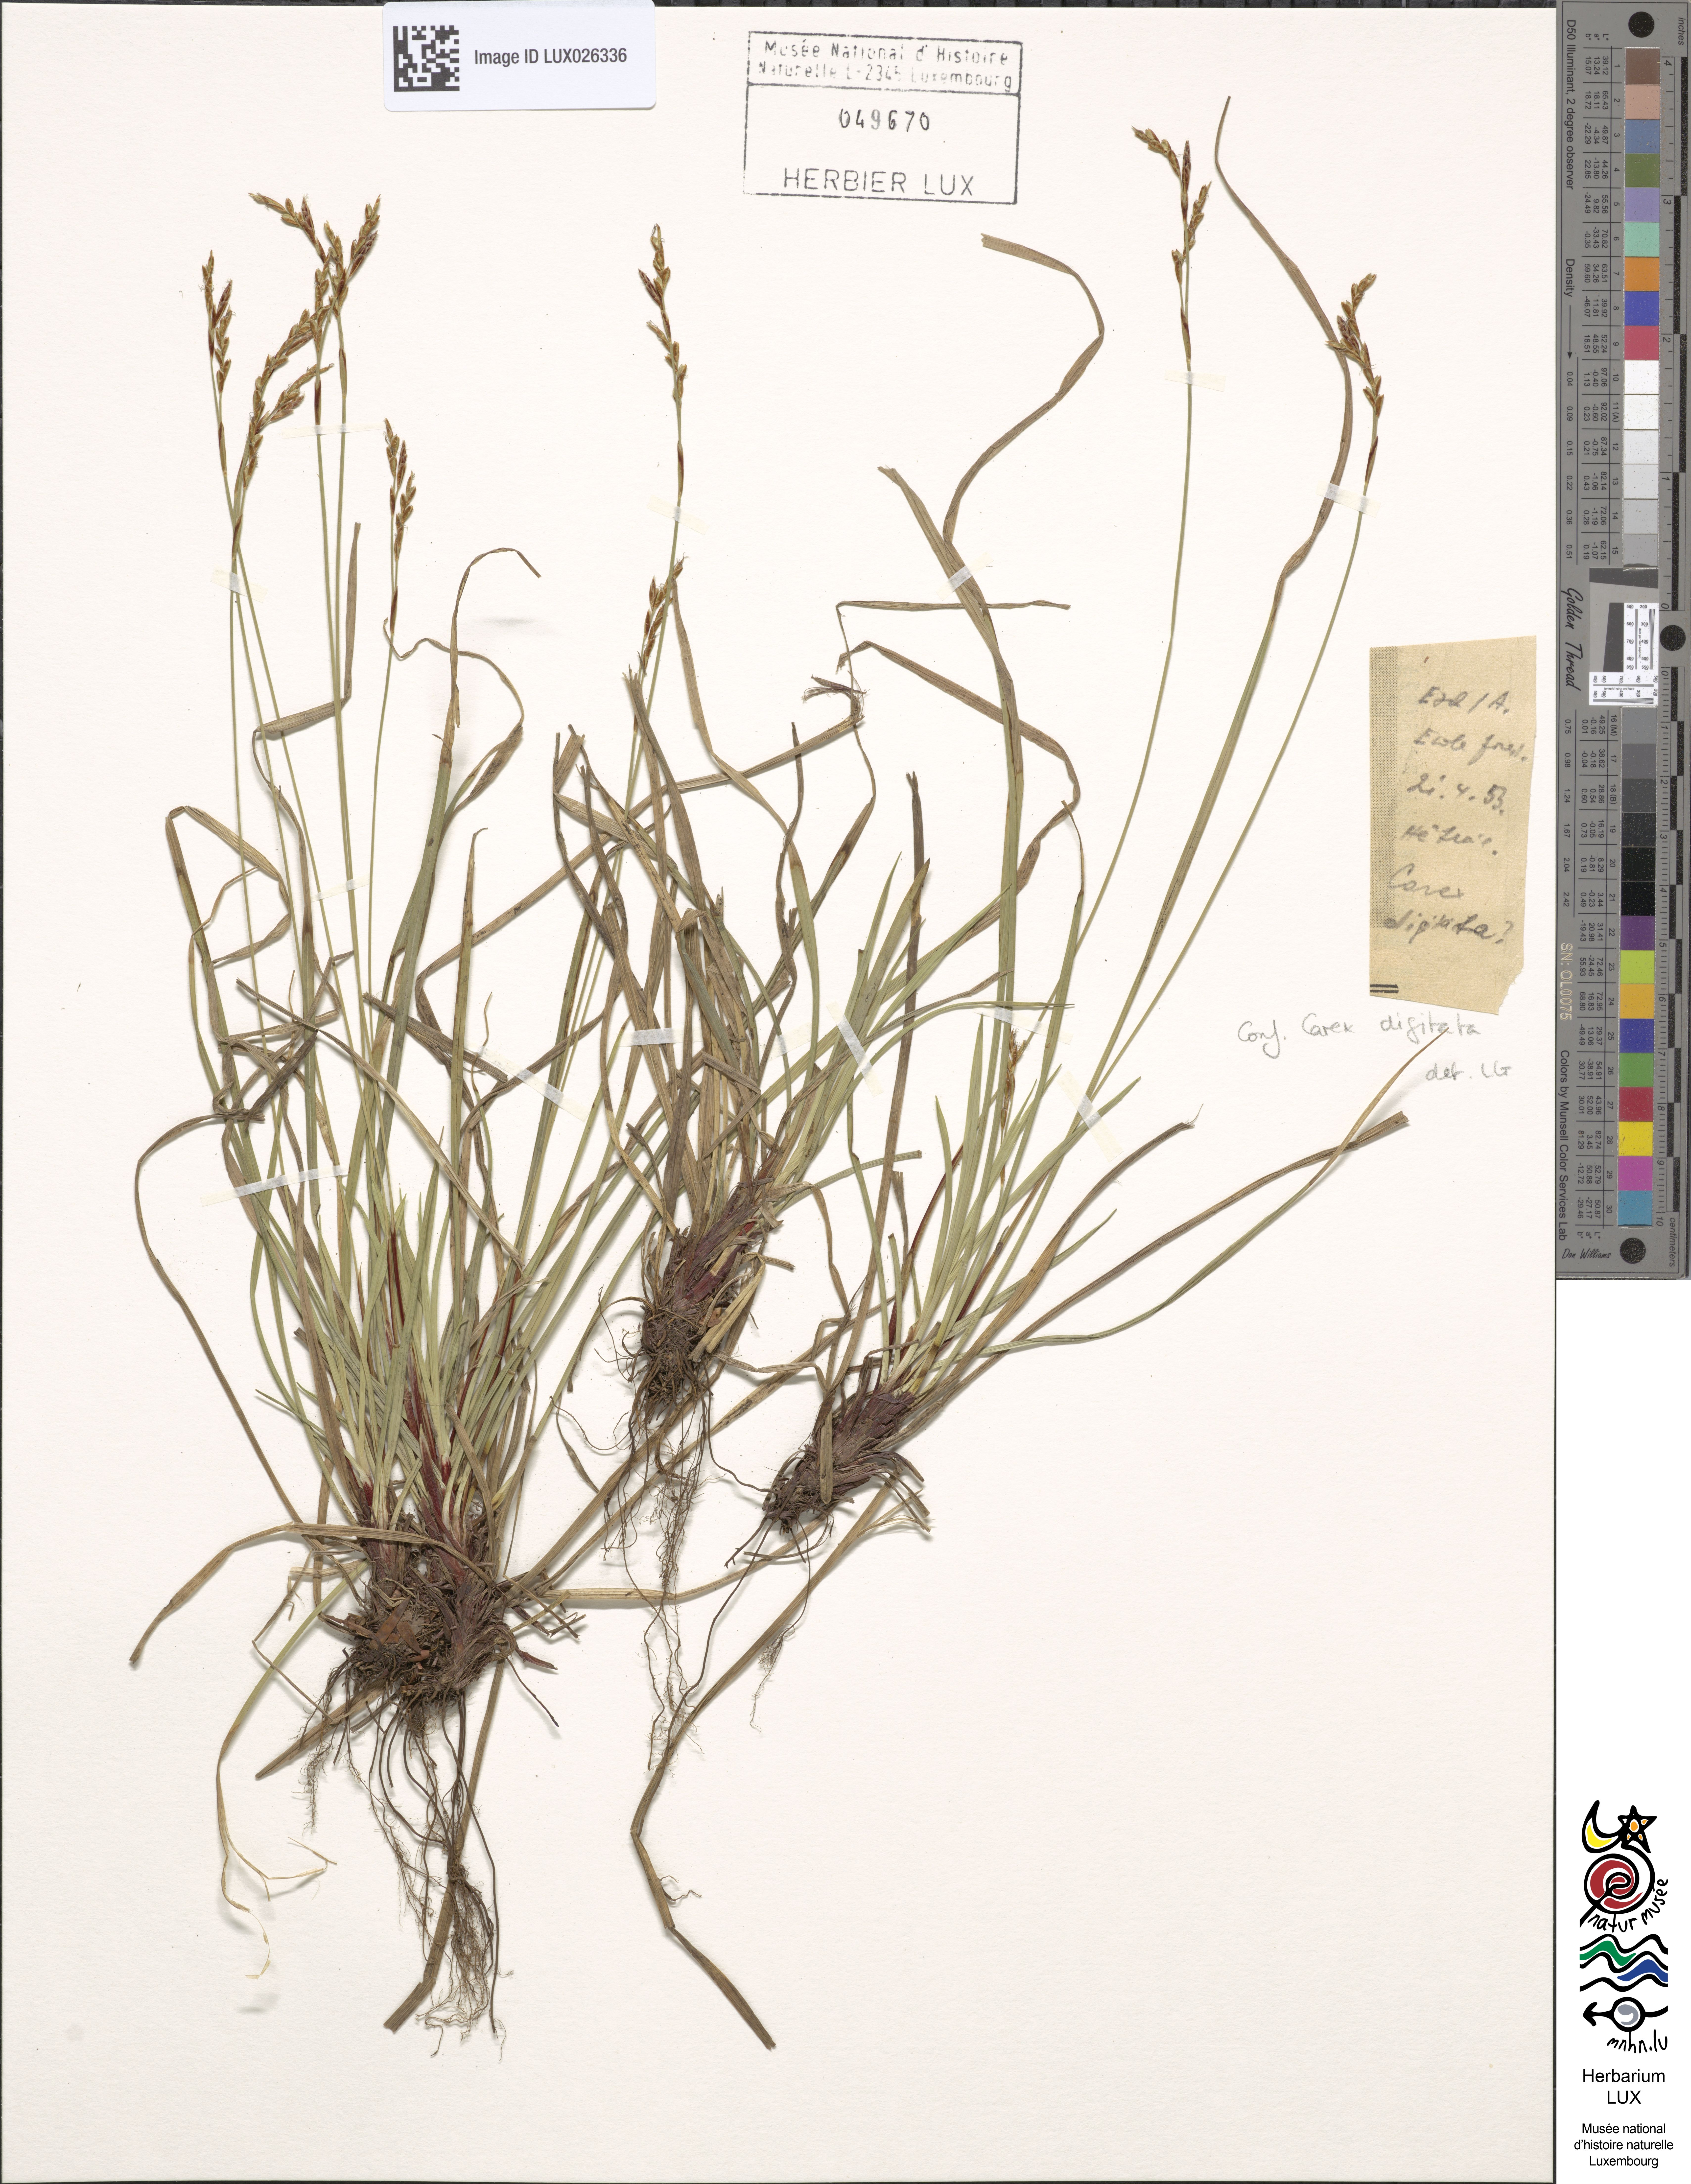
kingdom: Plantae
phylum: Tracheophyta
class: Liliopsida
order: Poales
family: Cyperaceae
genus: Carex
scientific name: Carex digitata
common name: Fingered sedge
